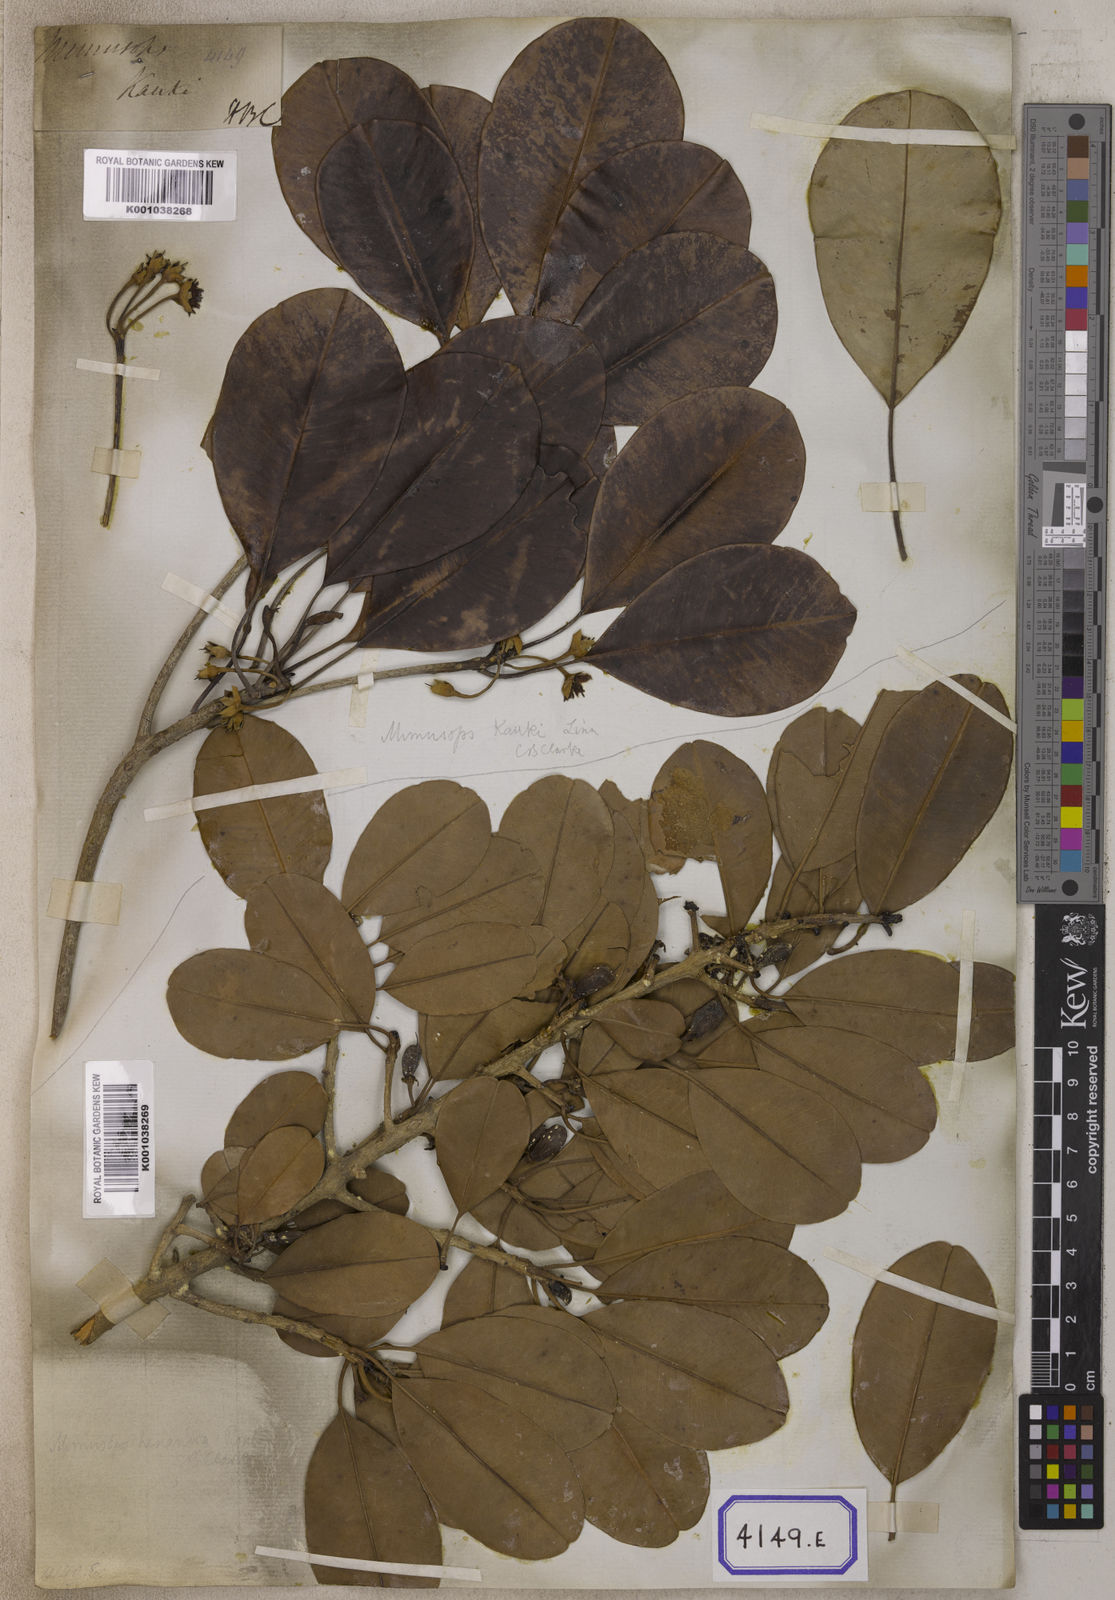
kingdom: Plantae
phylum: Tracheophyta
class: Magnoliopsida
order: Ericales
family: Sapotaceae
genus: Manilkara
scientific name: Manilkara kauki
